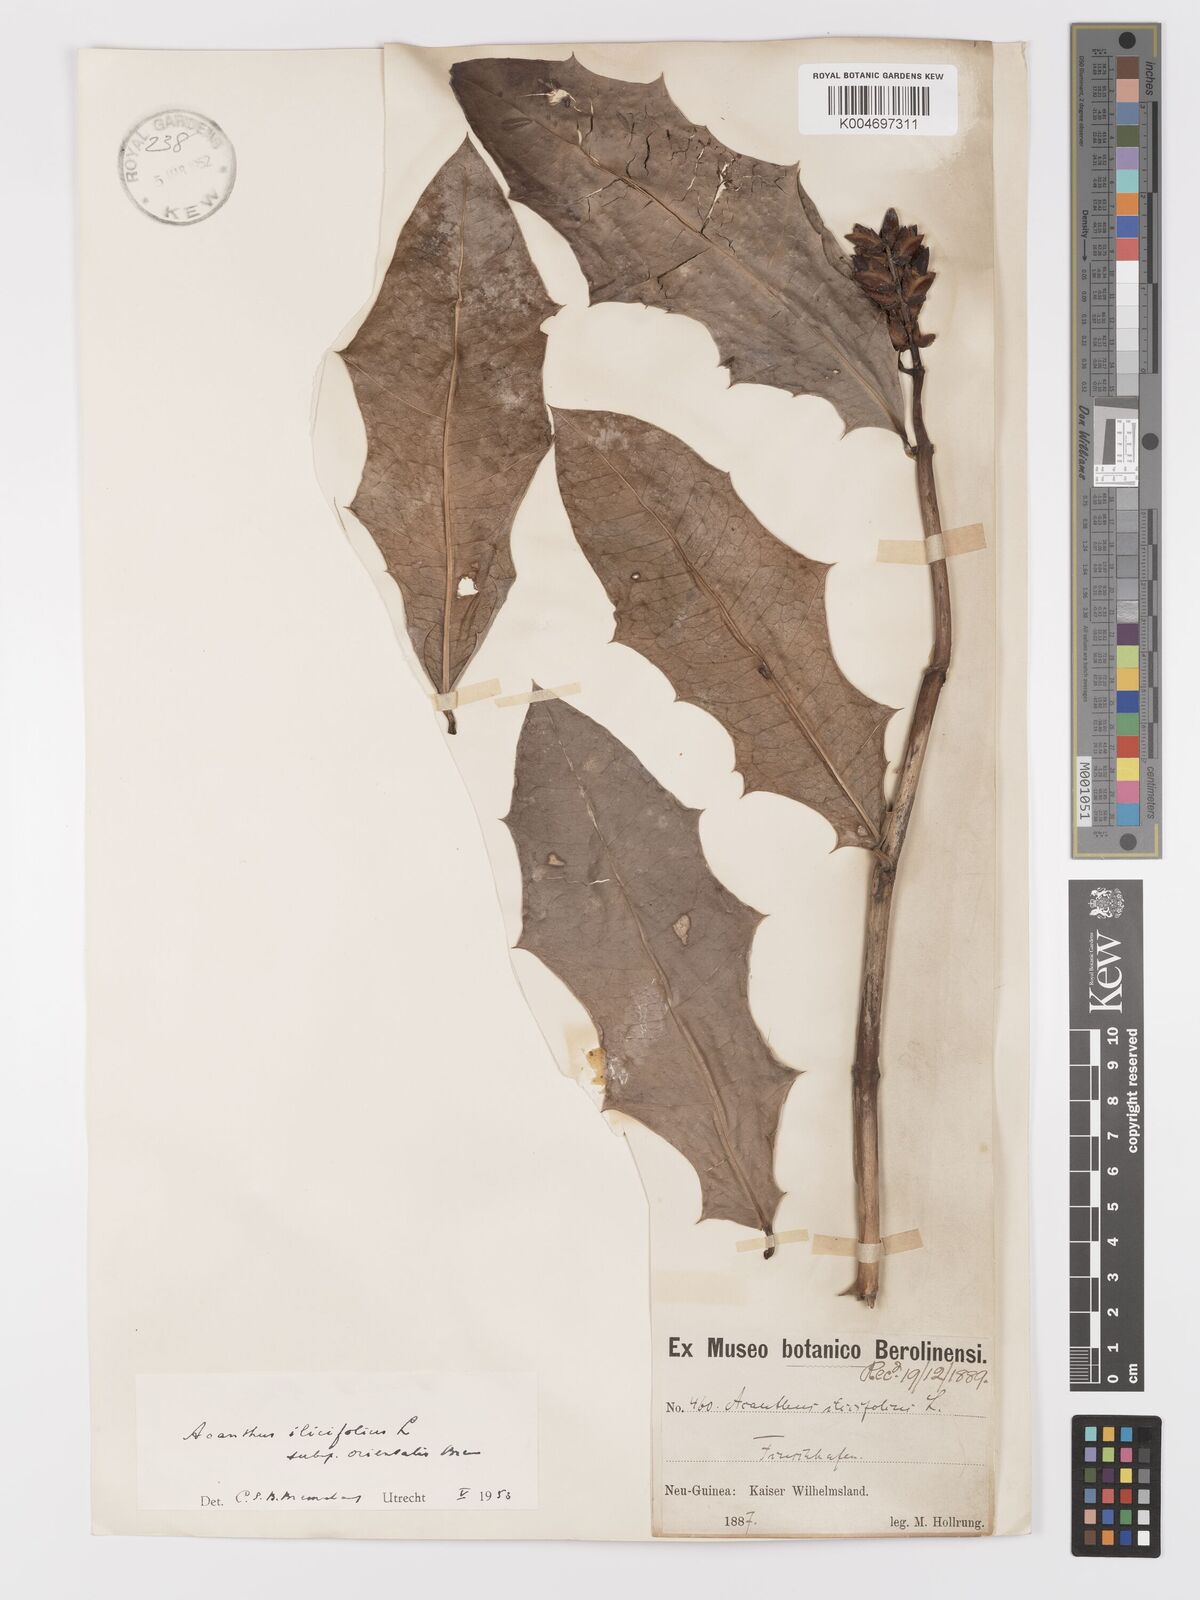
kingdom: Plantae
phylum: Tracheophyta
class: Magnoliopsida
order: Lamiales
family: Acanthaceae
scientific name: Acanthaceae
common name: Acanthaceae
